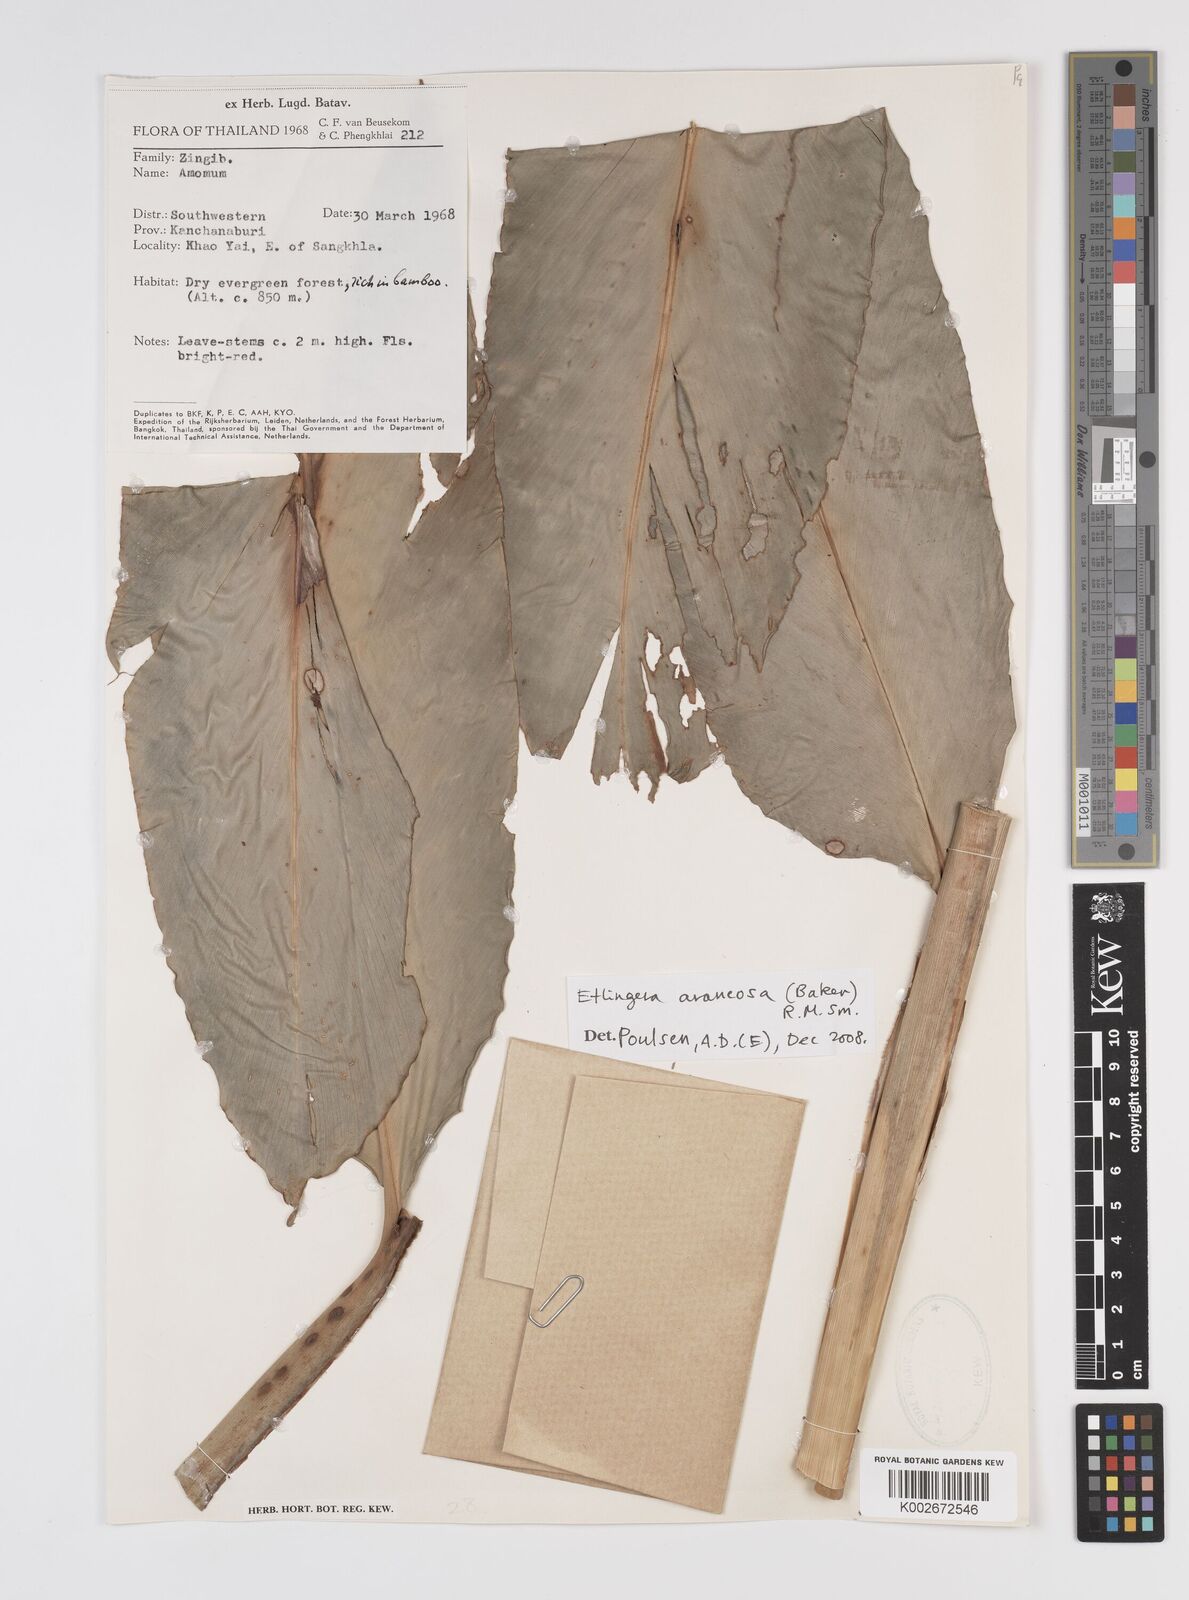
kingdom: Plantae
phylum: Tracheophyta
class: Liliopsida
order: Zingiberales
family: Zingiberaceae
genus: Etlingera
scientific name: Etlingera araneosa
